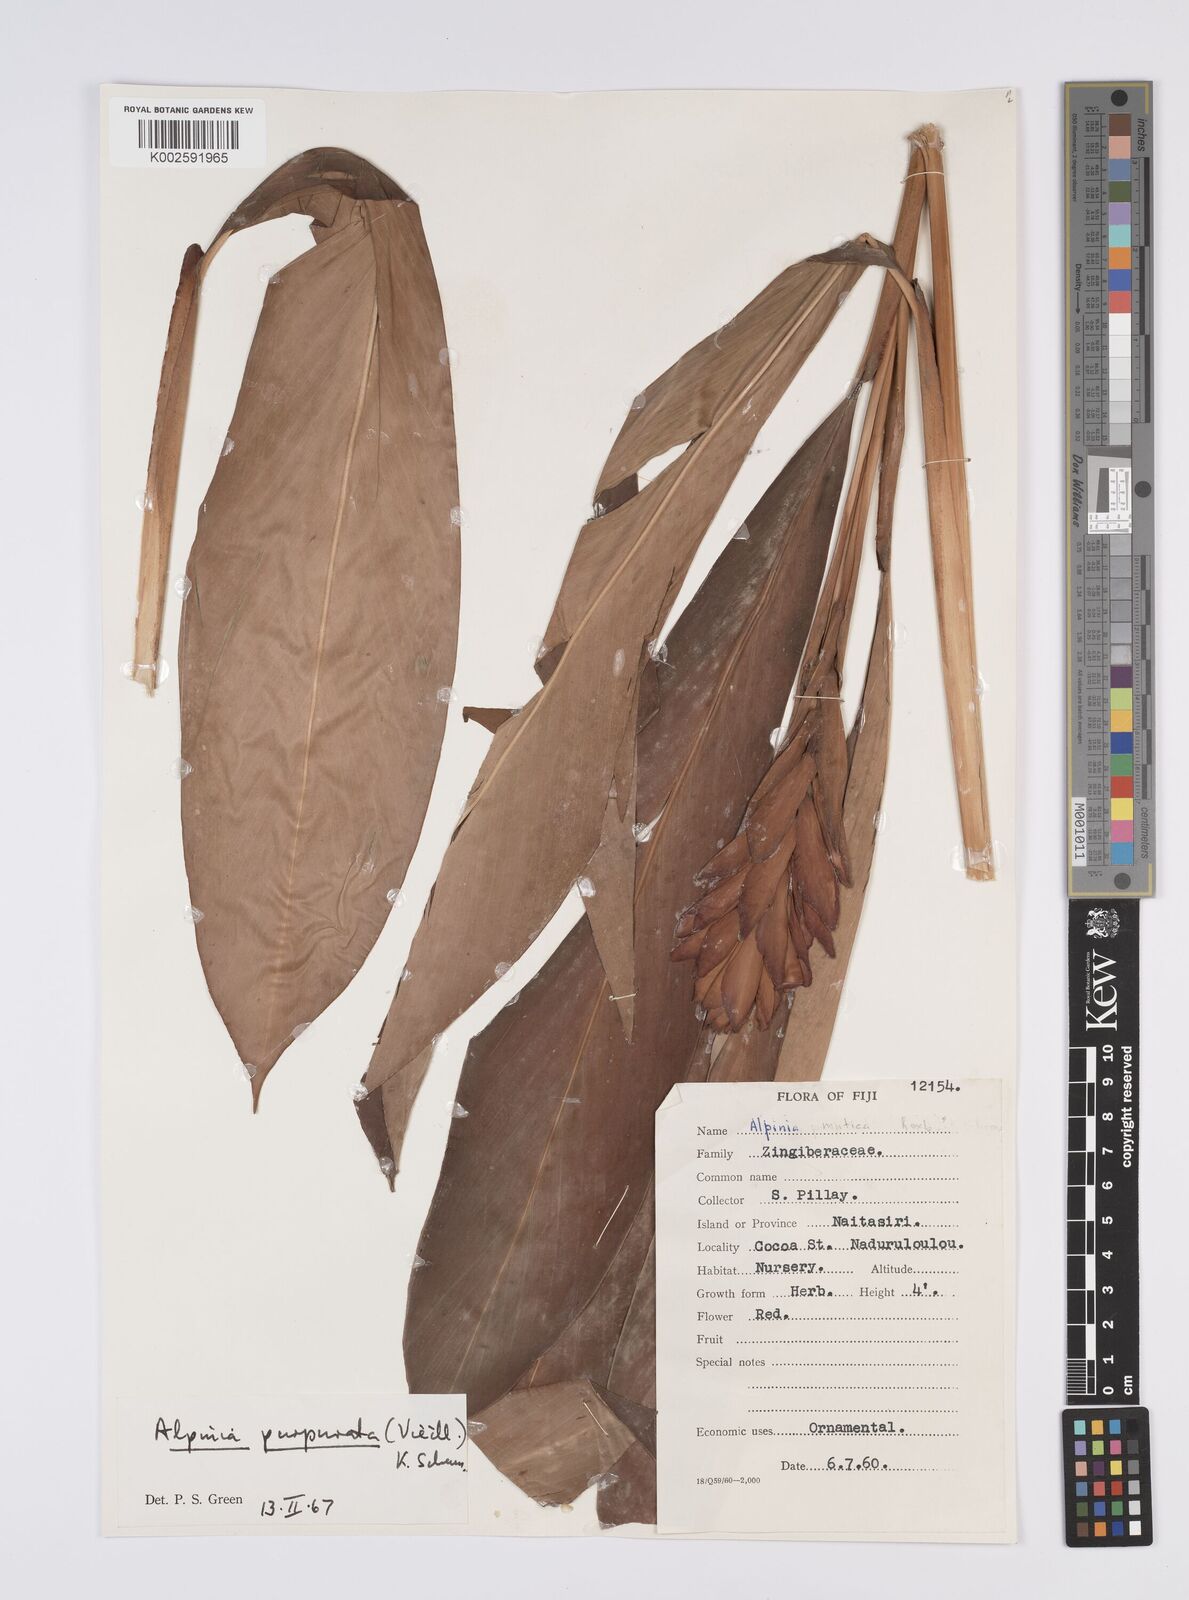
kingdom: Plantae
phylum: Tracheophyta
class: Liliopsida
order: Zingiberales
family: Zingiberaceae
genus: Alpinia
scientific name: Alpinia purpurata
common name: Red ginger
